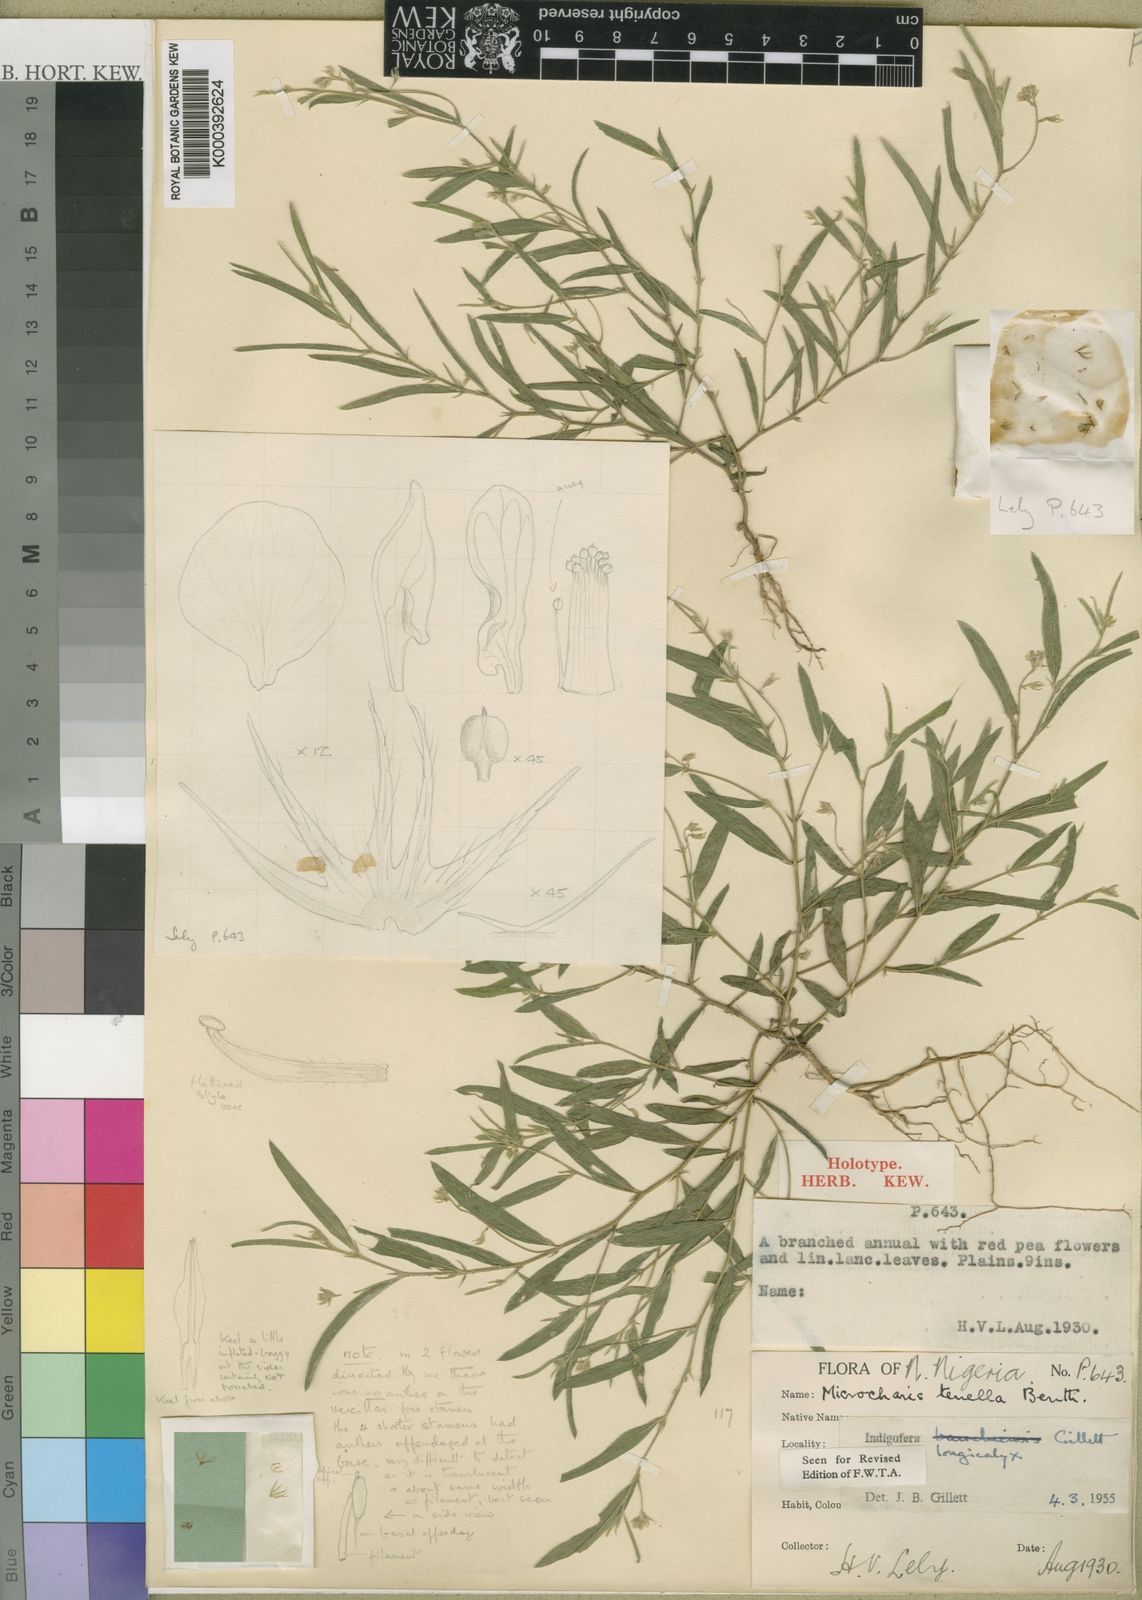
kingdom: Plantae
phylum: Tracheophyta
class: Magnoliopsida
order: Fabales
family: Fabaceae
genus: Microcharis
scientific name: Microcharis longicalyx
